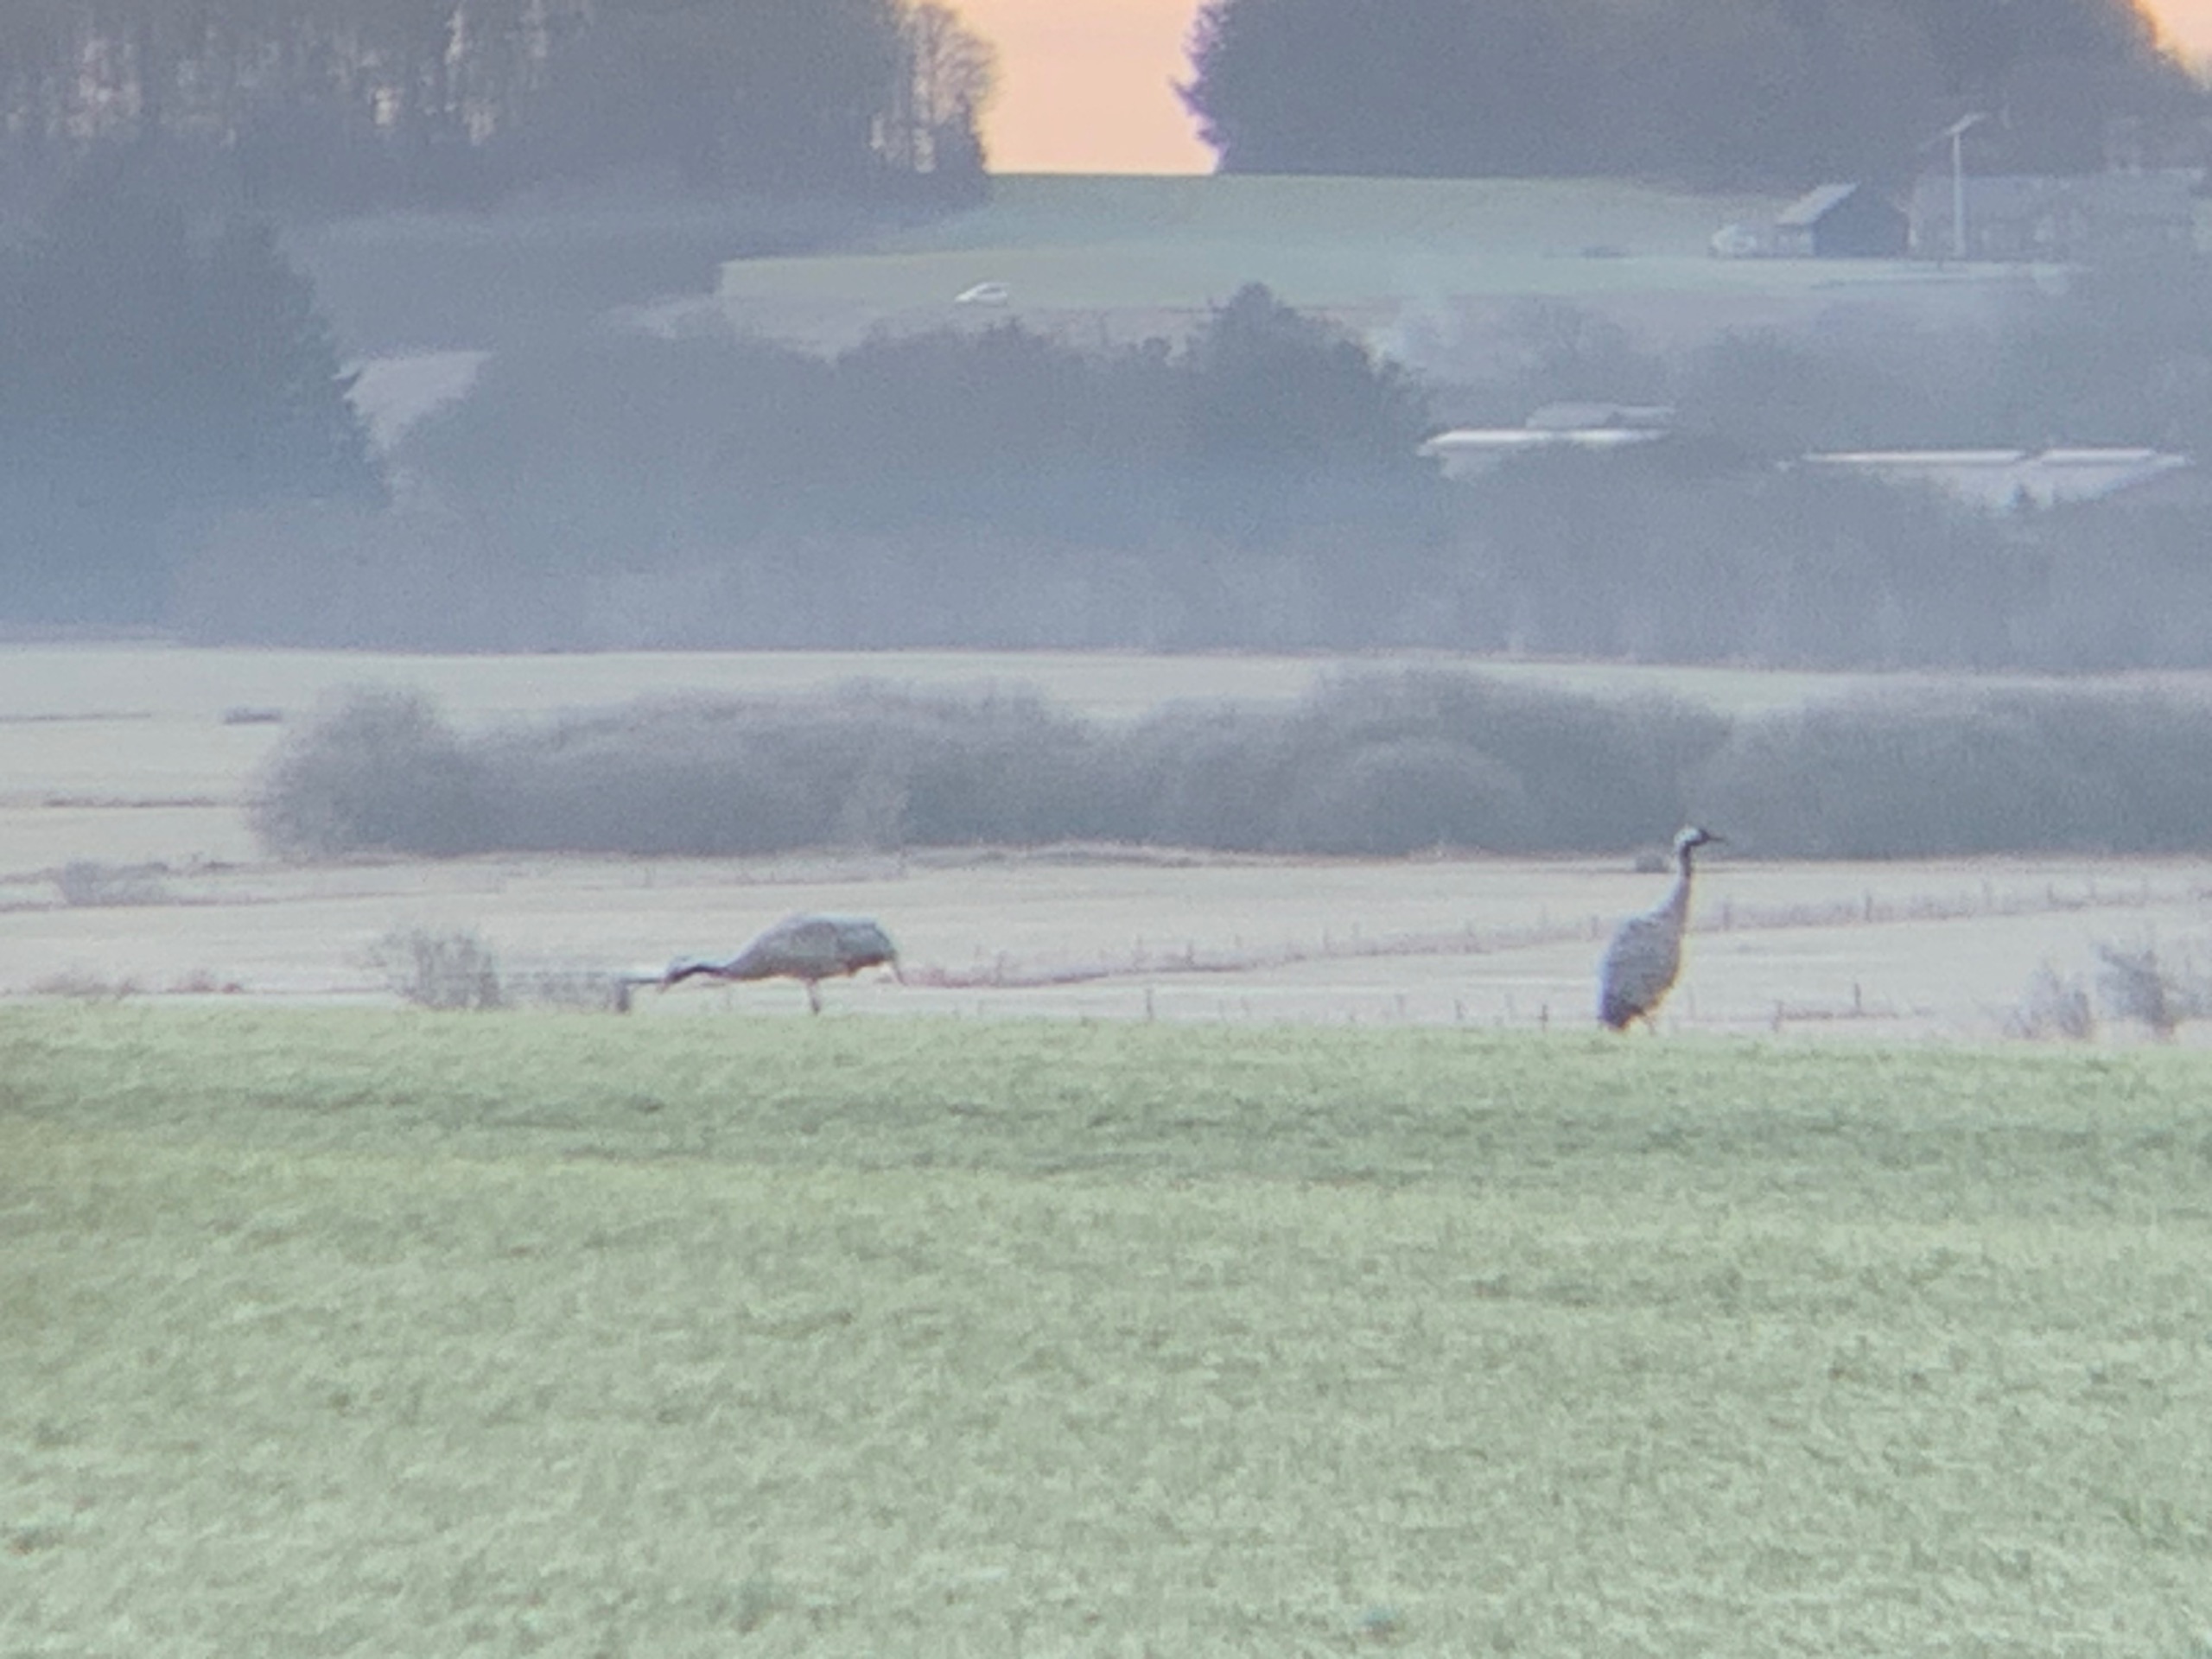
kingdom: Animalia
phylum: Chordata
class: Aves
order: Gruiformes
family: Gruidae
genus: Grus
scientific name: Grus grus
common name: Trane
